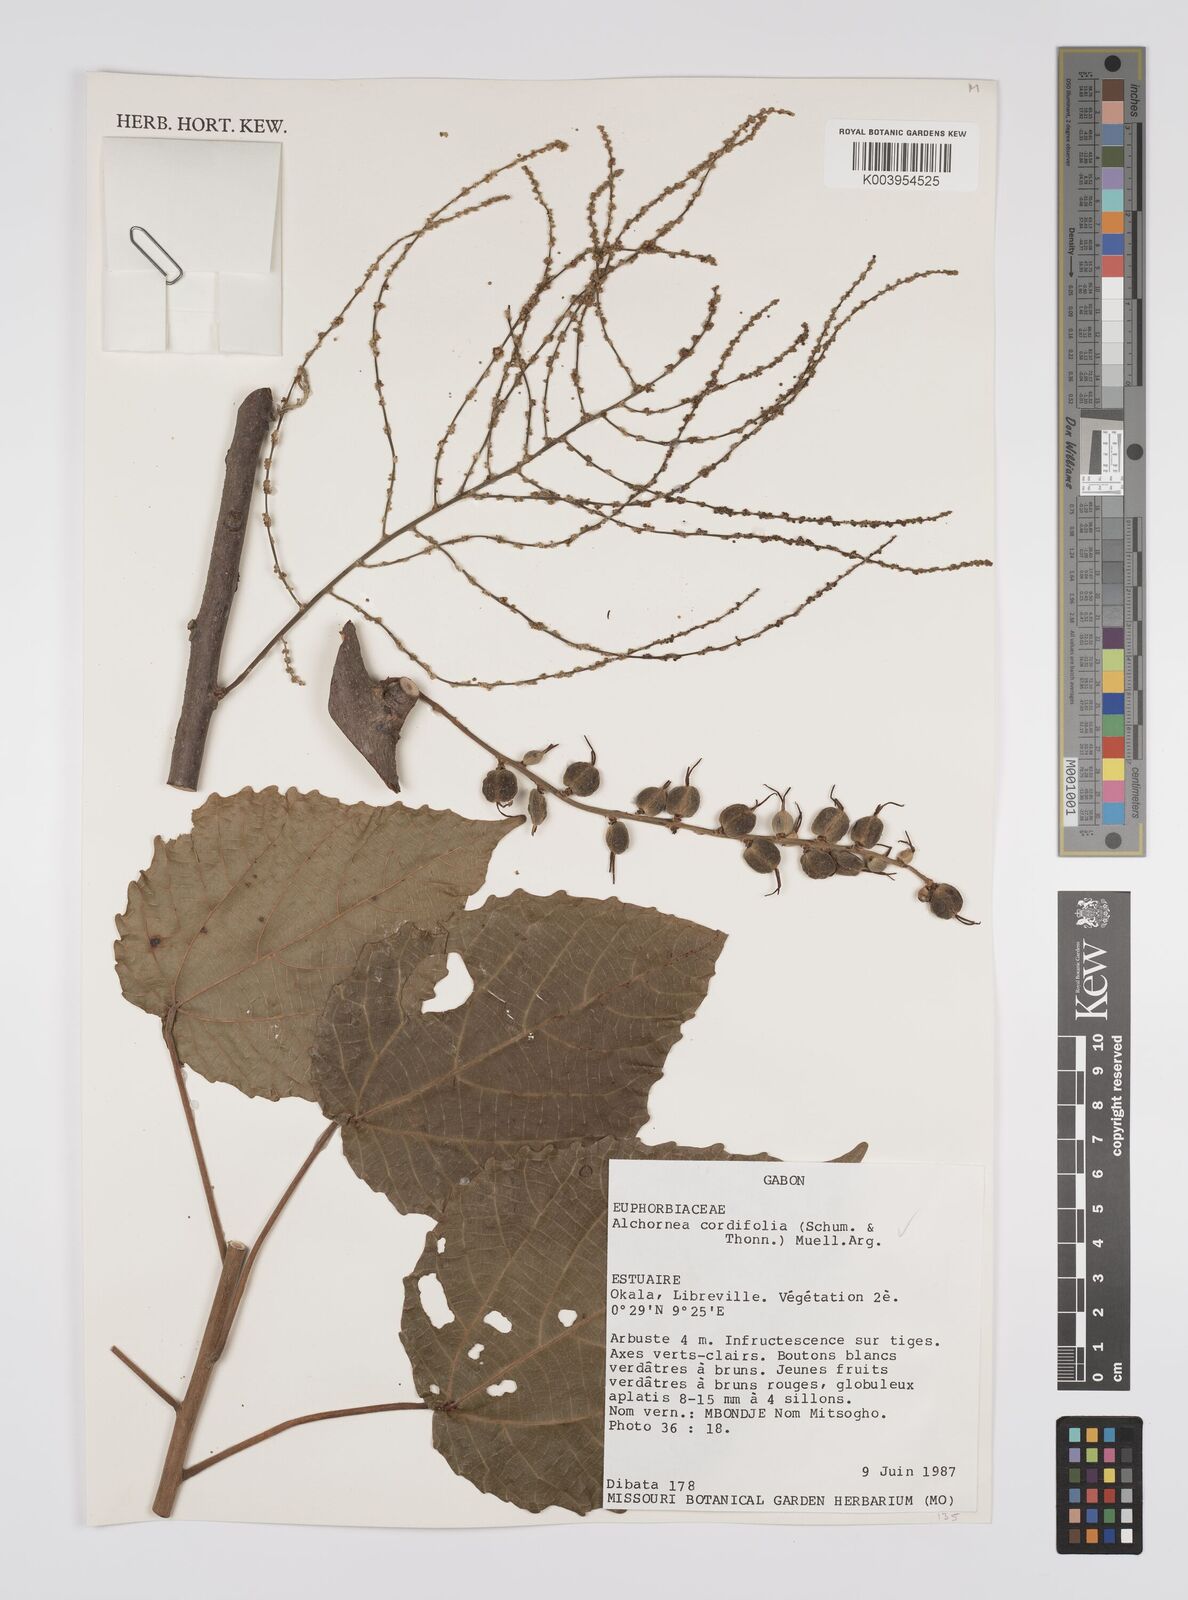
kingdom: Plantae
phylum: Tracheophyta
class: Magnoliopsida
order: Malpighiales
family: Euphorbiaceae
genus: Alchornea
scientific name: Alchornea cordifolia
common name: Christmasbush
